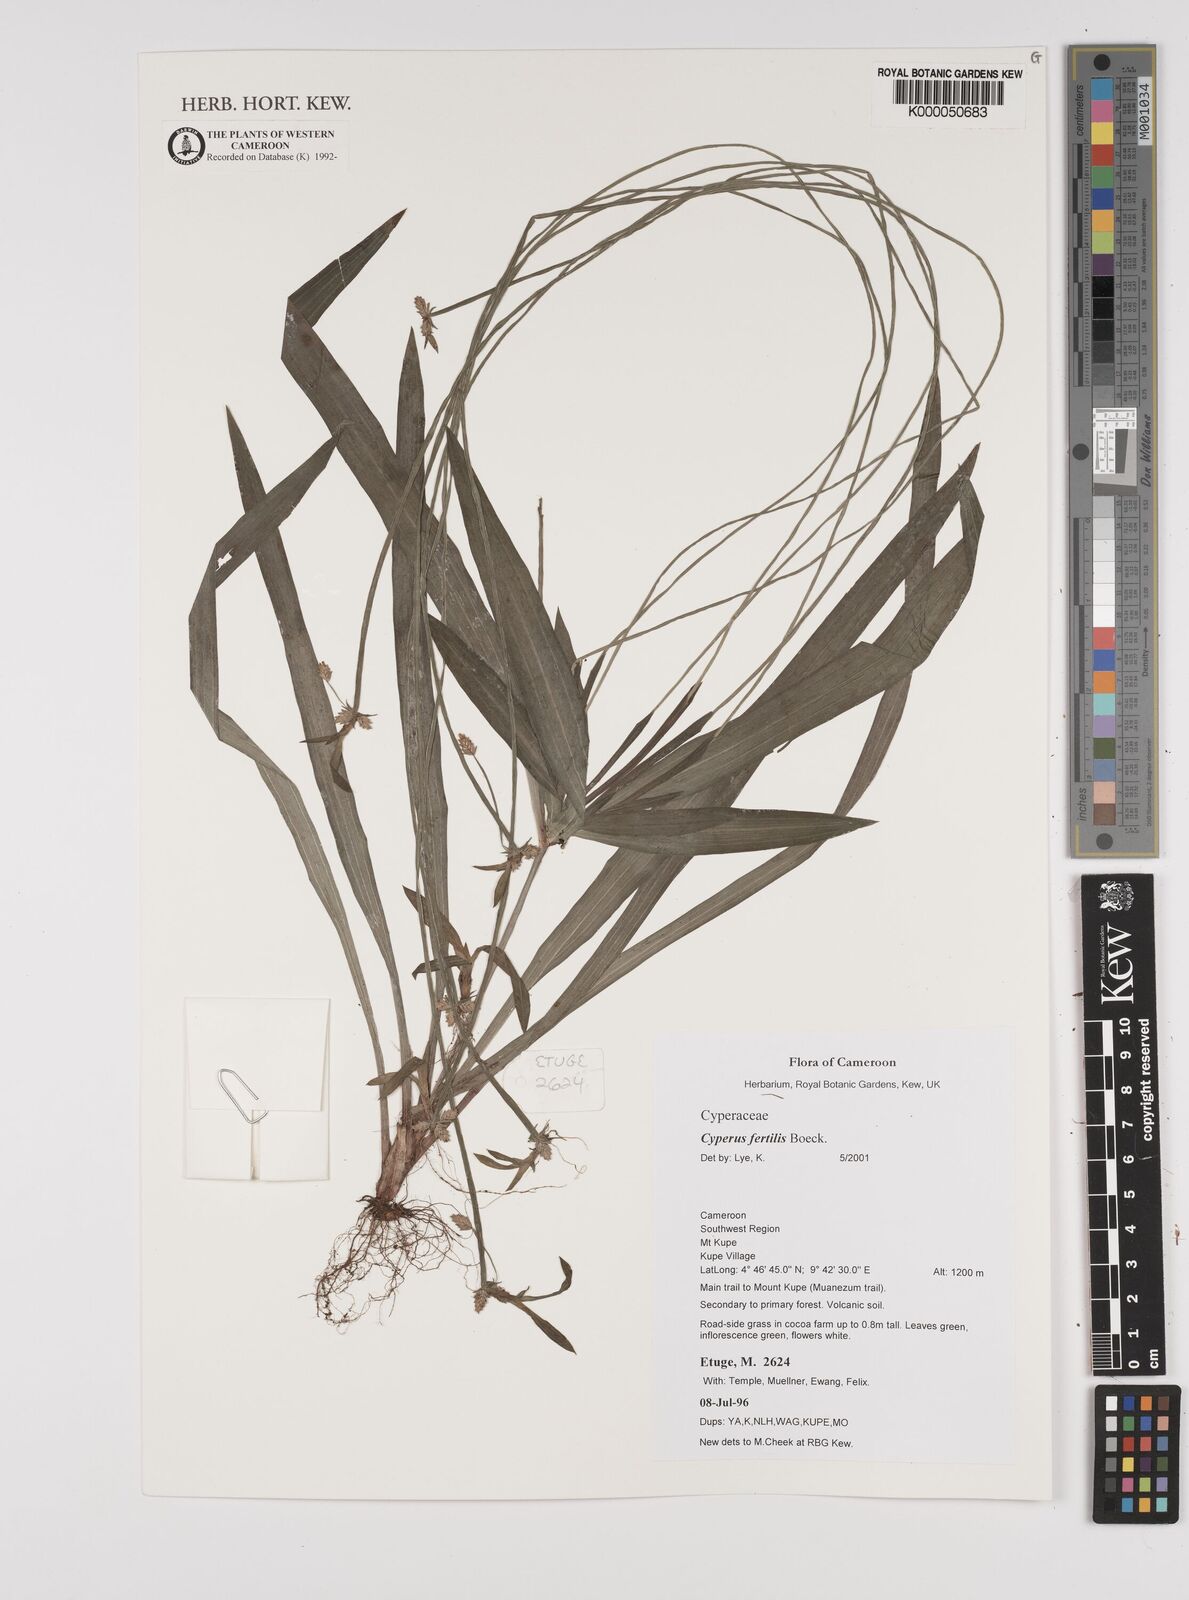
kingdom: Plantae
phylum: Tracheophyta
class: Liliopsida
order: Poales
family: Cyperaceae
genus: Cyperus
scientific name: Cyperus fertilis
